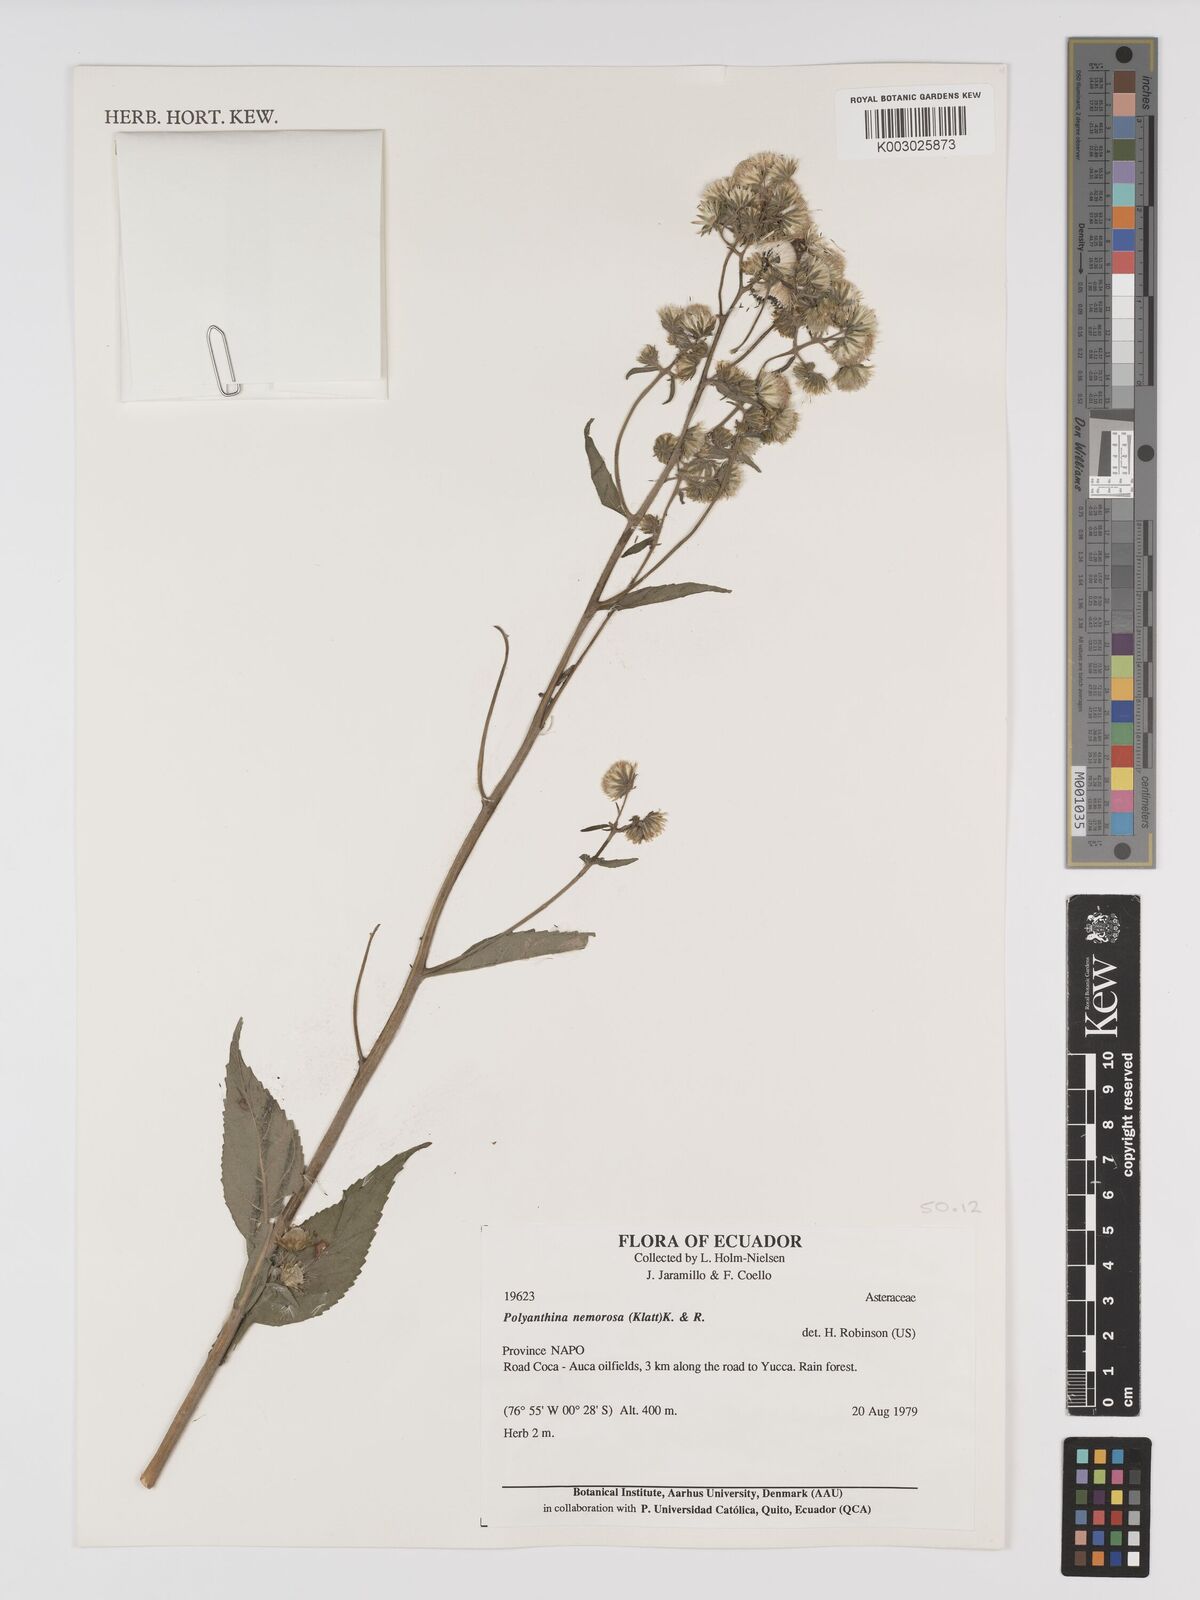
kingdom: Plantae
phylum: Tracheophyta
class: Magnoliopsida
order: Asterales
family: Asteraceae
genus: Polyanthina
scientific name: Polyanthina nemorosa
